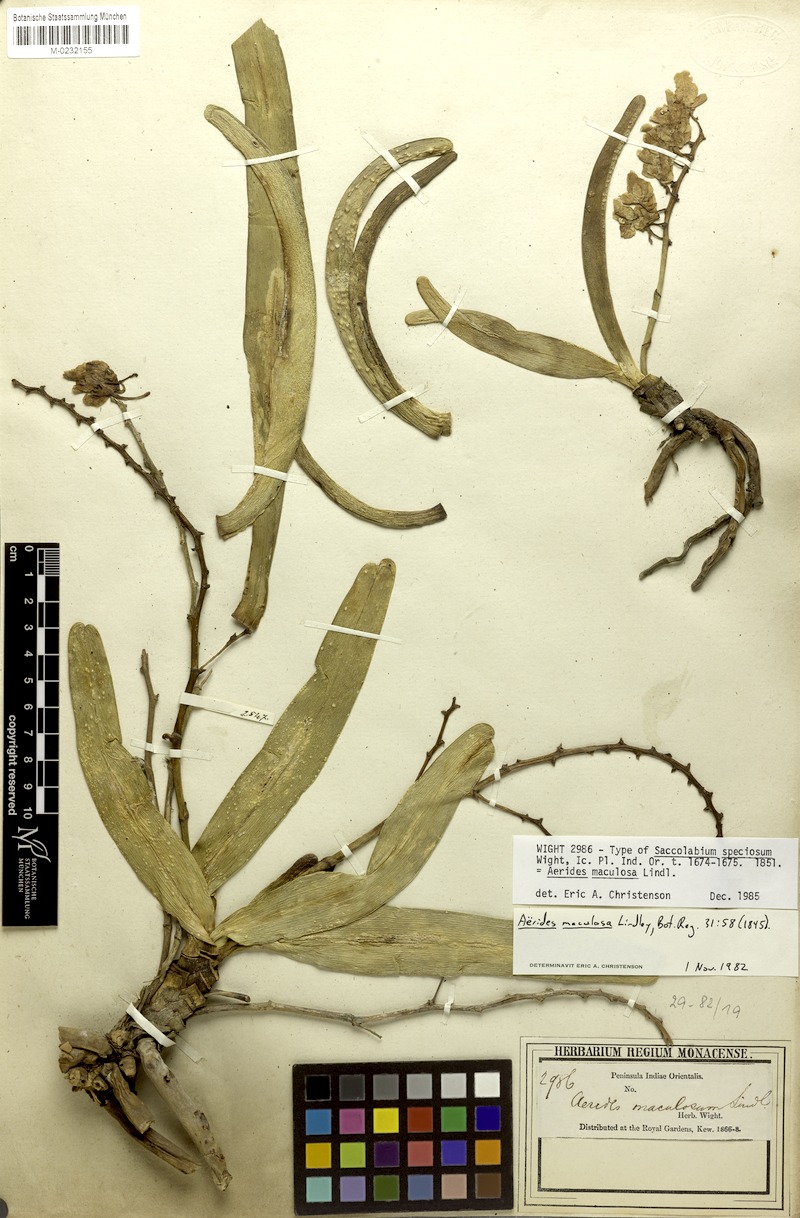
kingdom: Plantae
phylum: Tracheophyta
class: Liliopsida
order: Asparagales
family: Orchidaceae
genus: Aerides
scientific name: Aerides maculosa
